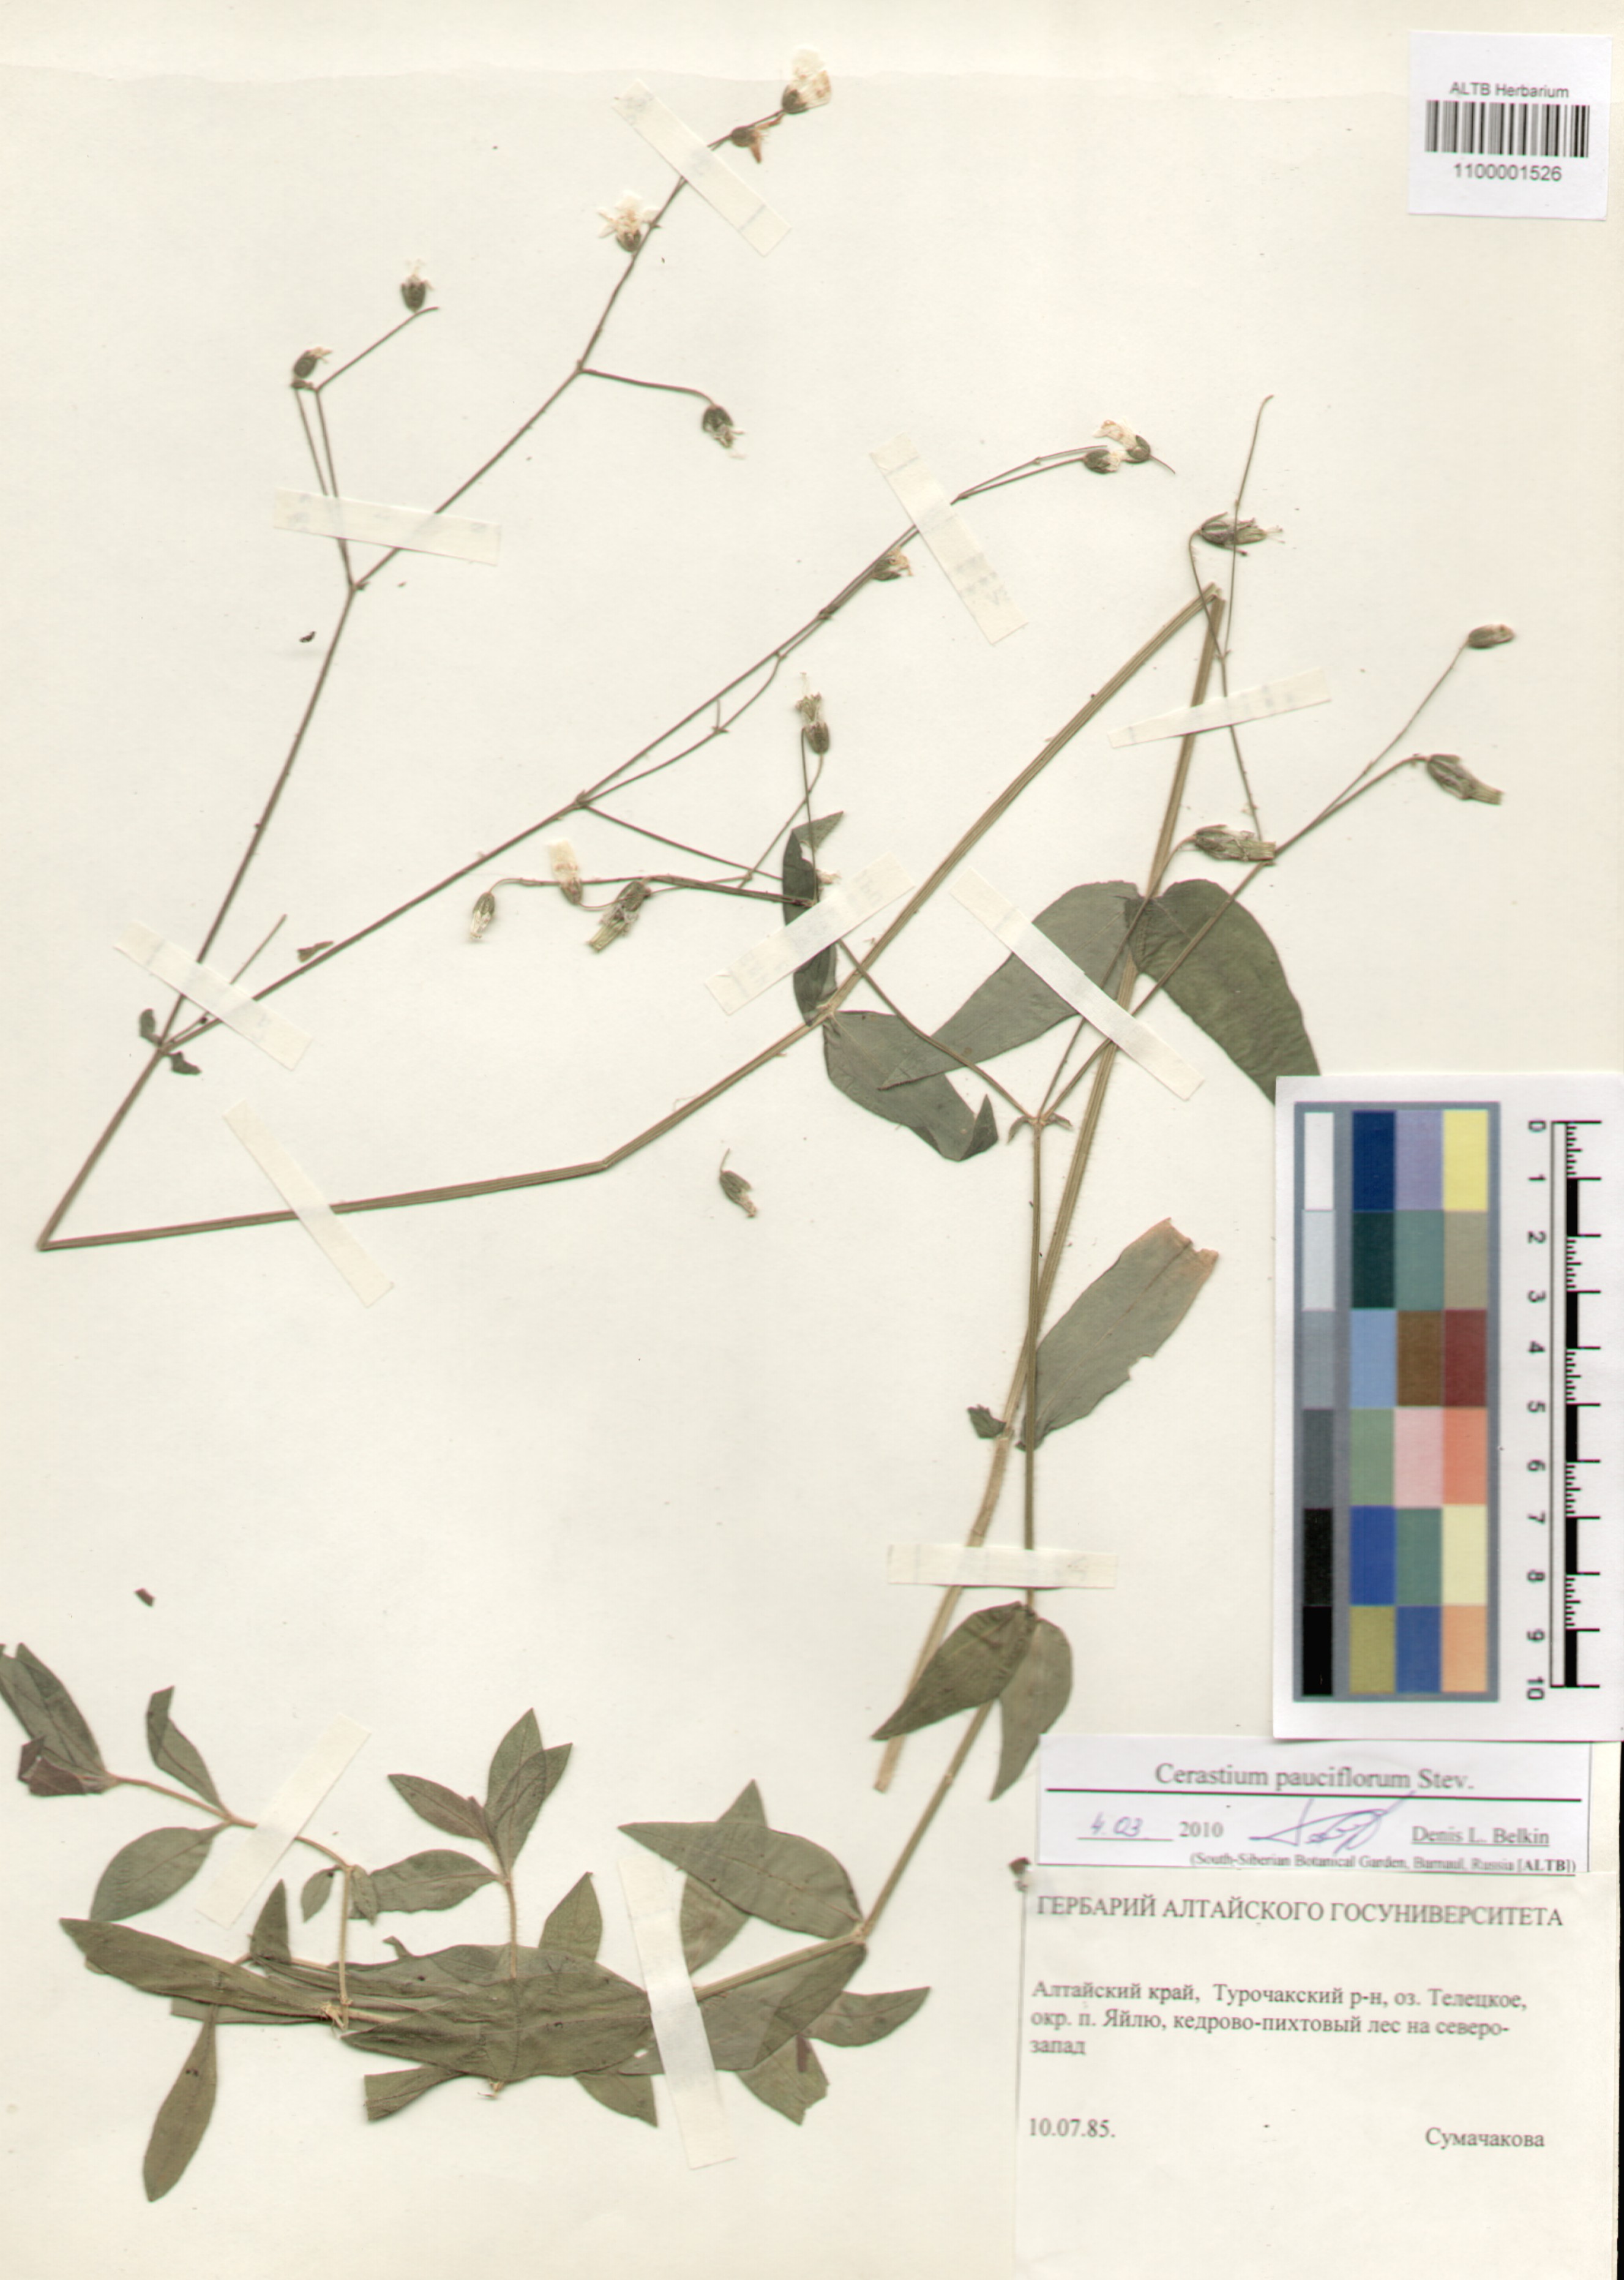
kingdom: Plantae
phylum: Tracheophyta
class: Magnoliopsida
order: Caryophyllales
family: Caryophyllaceae
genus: Cerastium
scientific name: Cerastium pauciflorum
